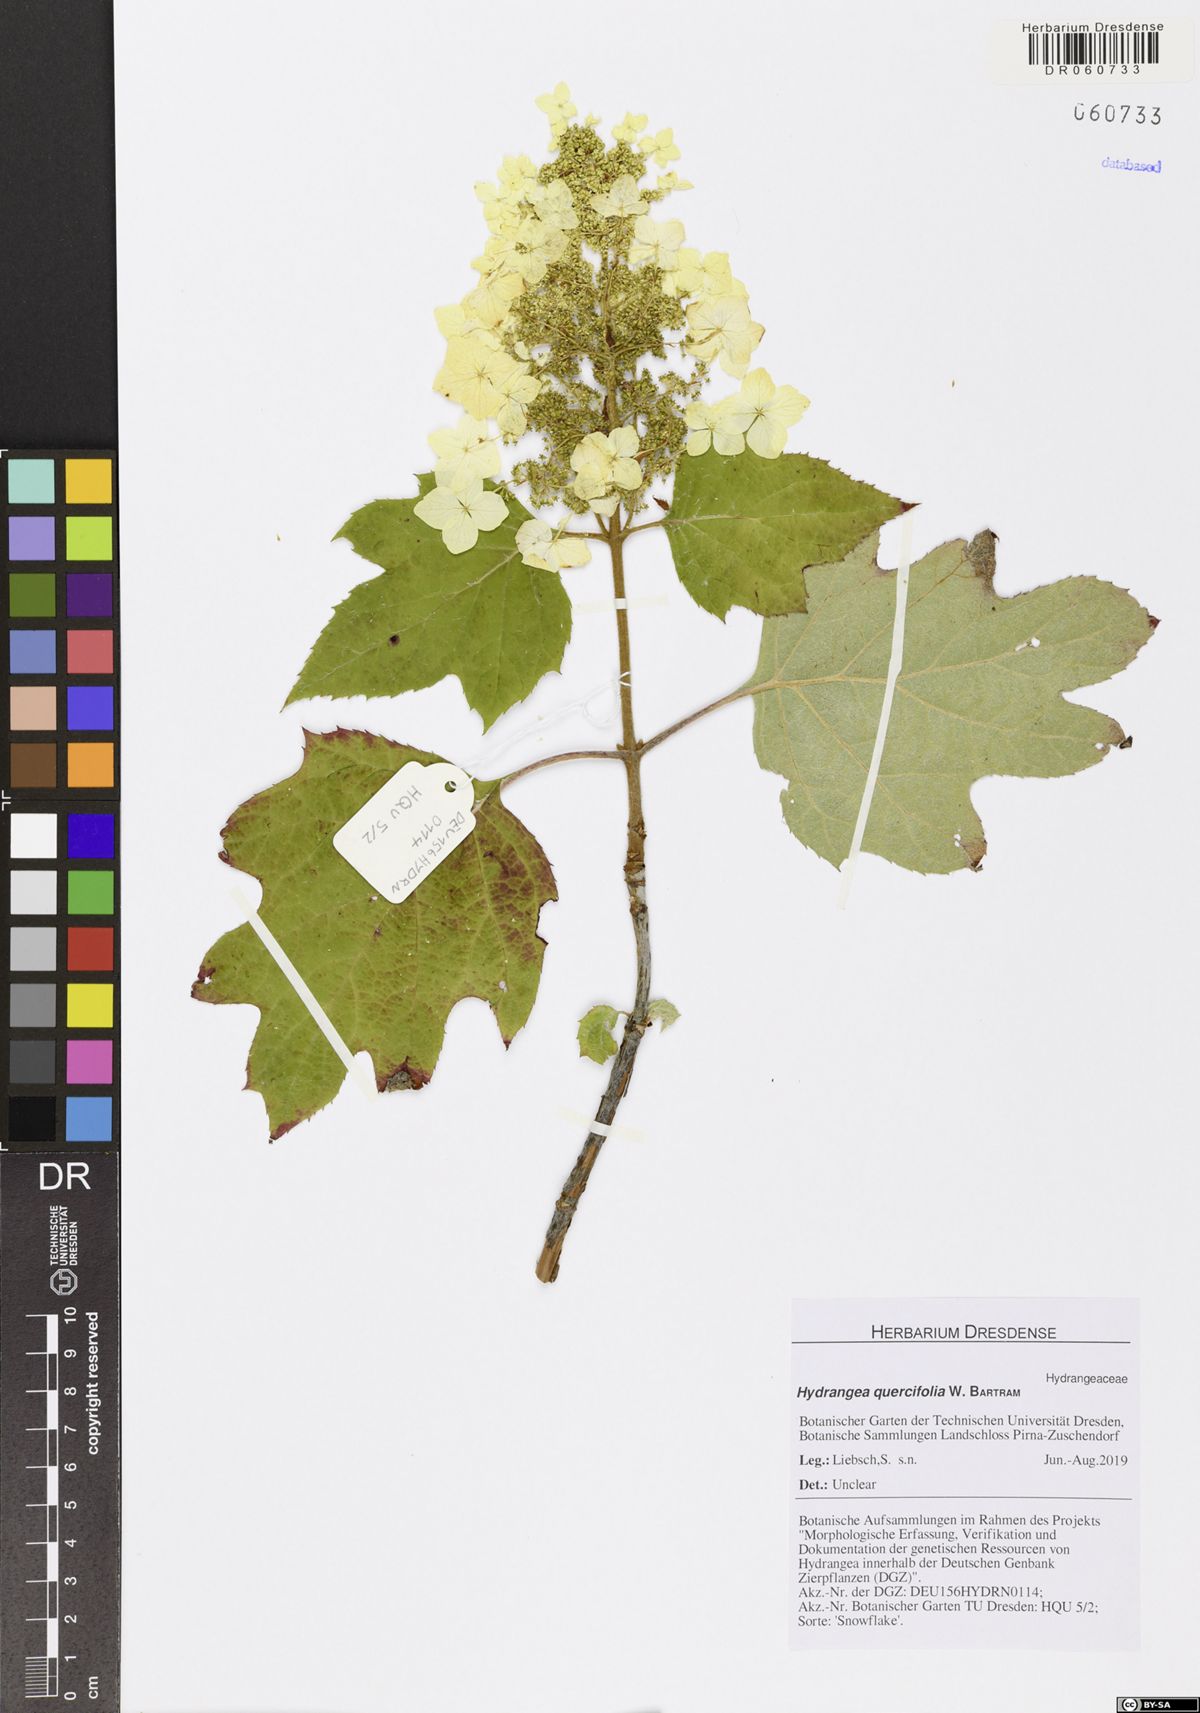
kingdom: Plantae
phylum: Tracheophyta
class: Magnoliopsida
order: Cornales
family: Hydrangeaceae
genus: Hydrangea
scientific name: Hydrangea quercifolia
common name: Oak-leaf hydrangea
